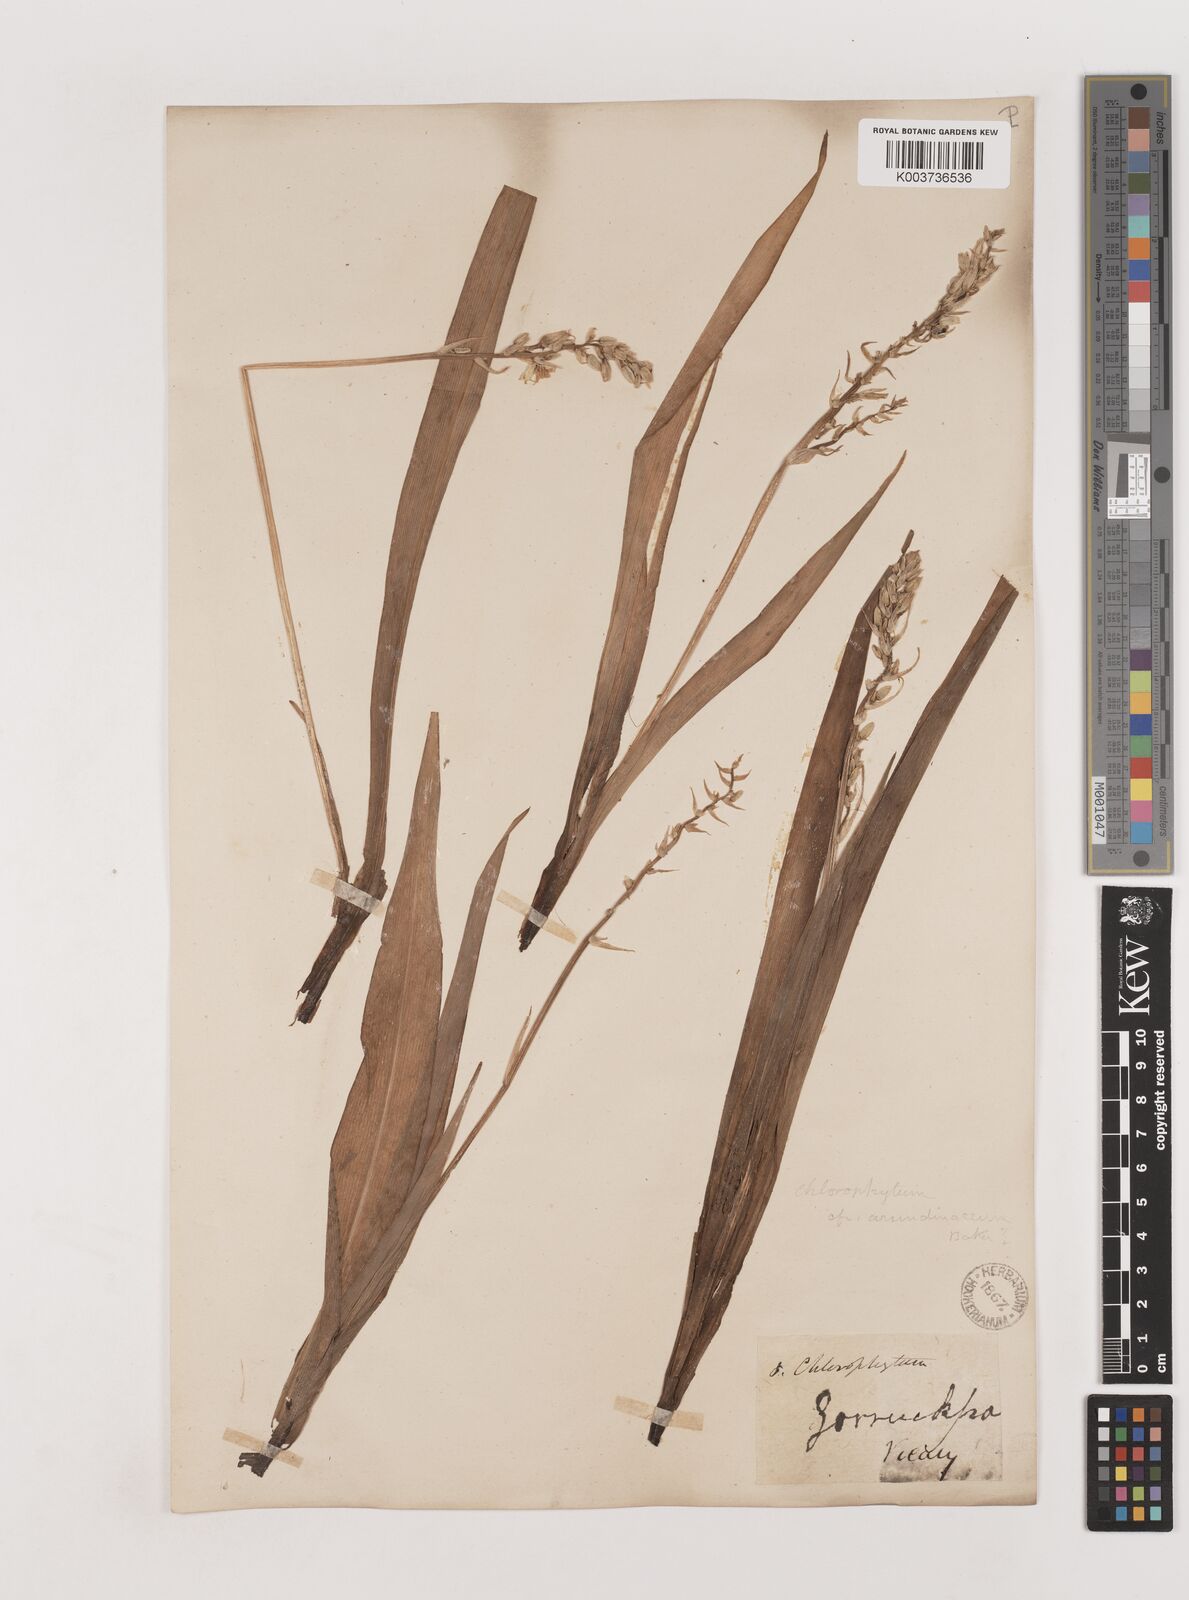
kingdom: Plantae
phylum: Tracheophyta
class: Liliopsida
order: Asparagales
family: Asparagaceae
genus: Chlorophytum
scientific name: Chlorophytum arundinaceum
